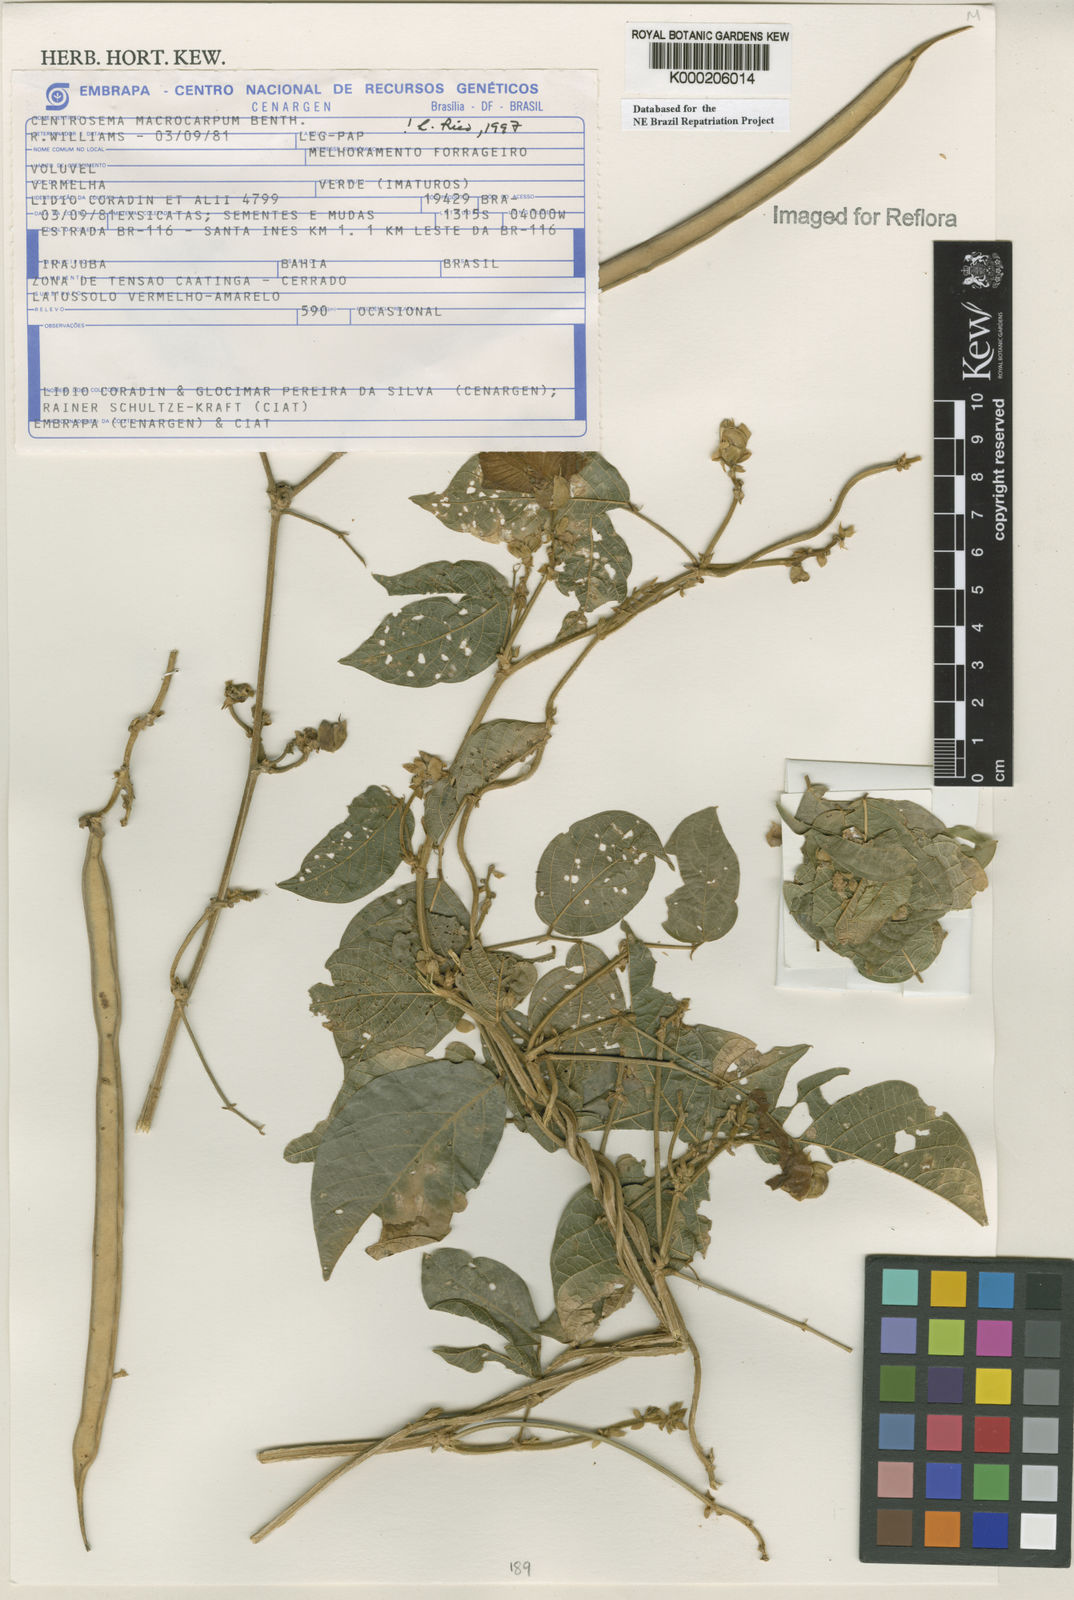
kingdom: Plantae
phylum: Tracheophyta
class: Magnoliopsida
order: Fabales
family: Fabaceae
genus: Centrosema
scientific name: Centrosema macrocarpum
